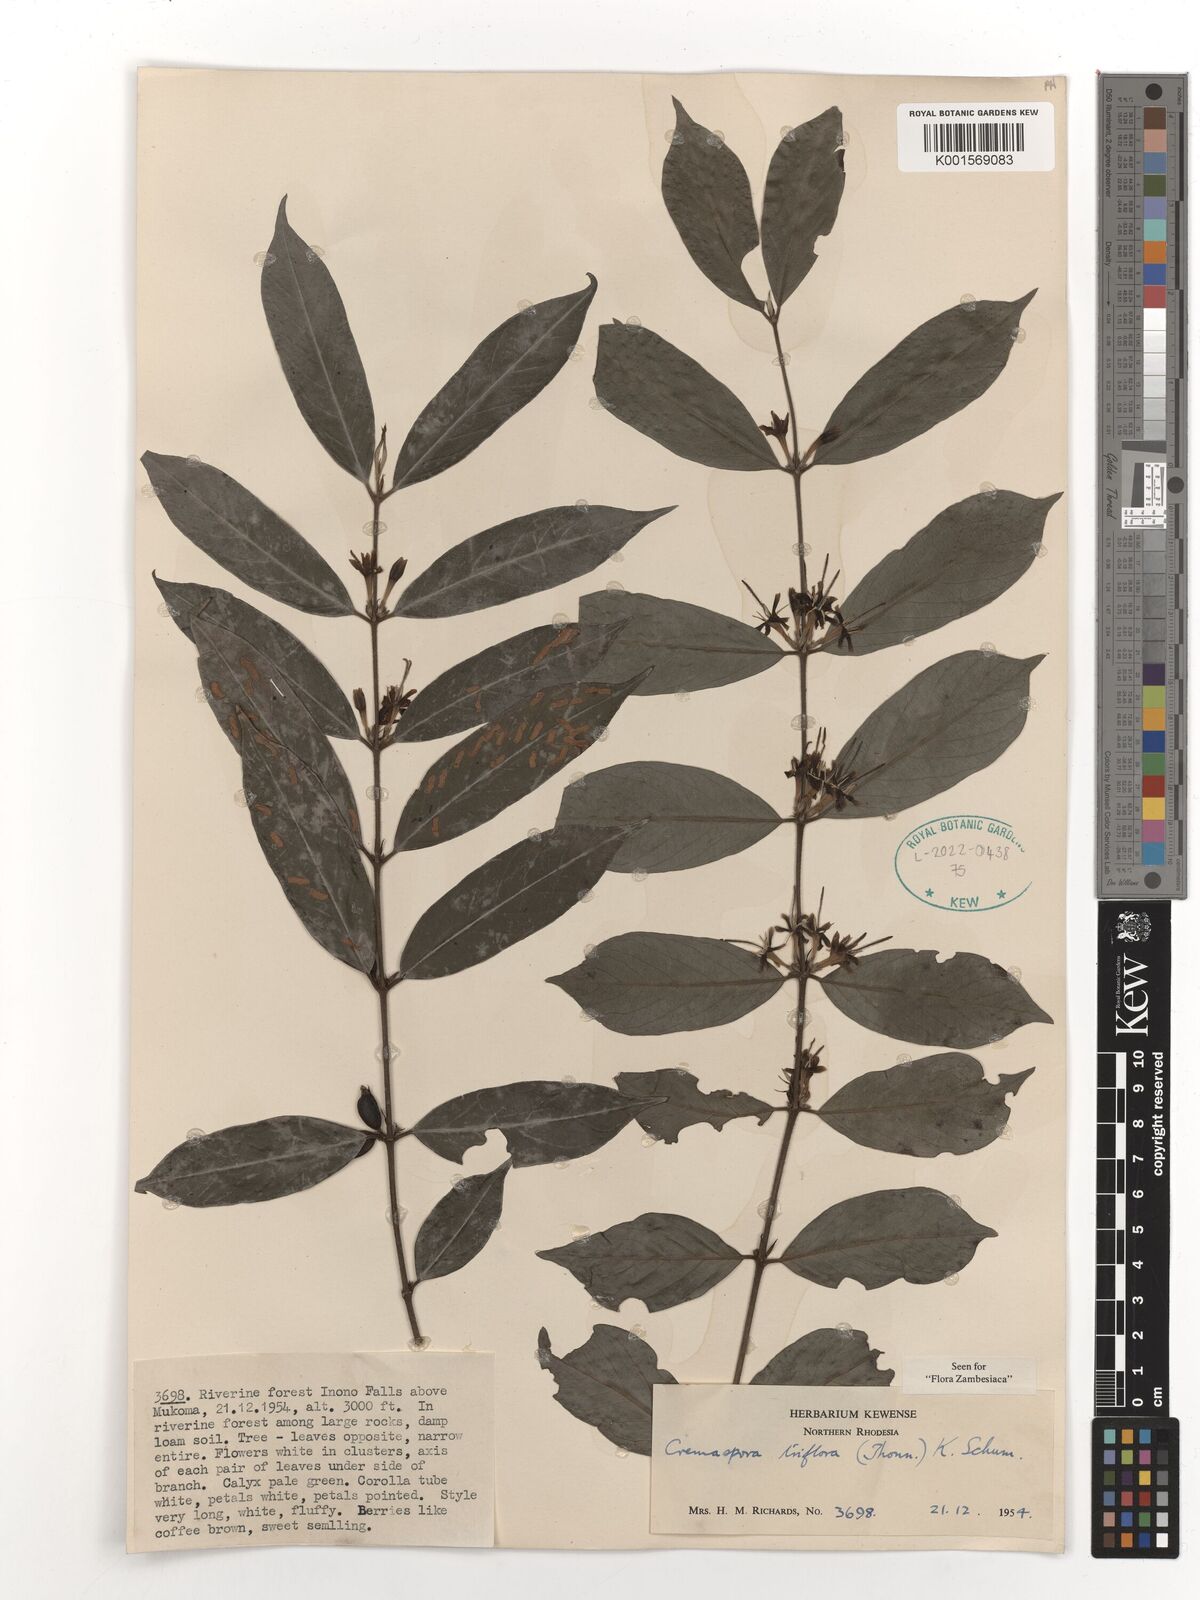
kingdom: Plantae
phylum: Tracheophyta
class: Magnoliopsida
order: Gentianales
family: Rubiaceae
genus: Cremaspora
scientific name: Cremaspora triflora
